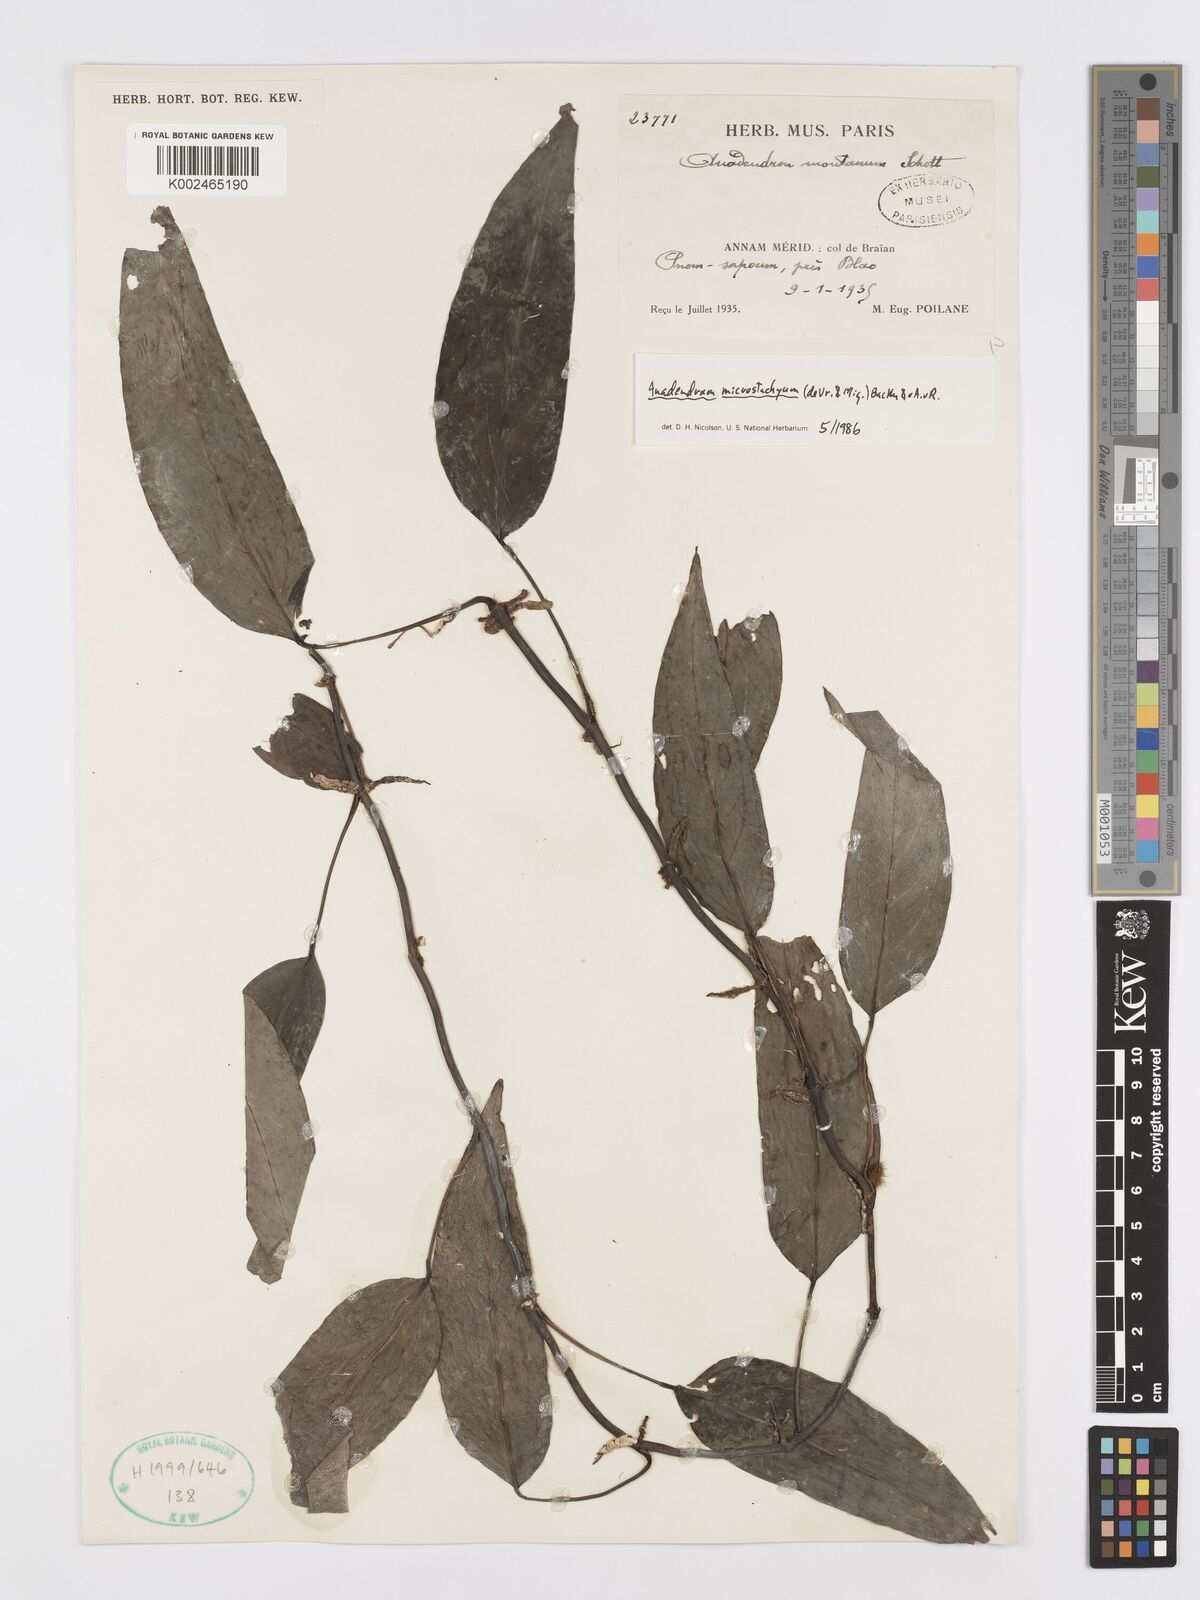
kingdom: Plantae
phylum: Tracheophyta
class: Liliopsida
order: Alismatales
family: Araceae
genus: Anadendrum
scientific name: Anadendrum microstachyum
